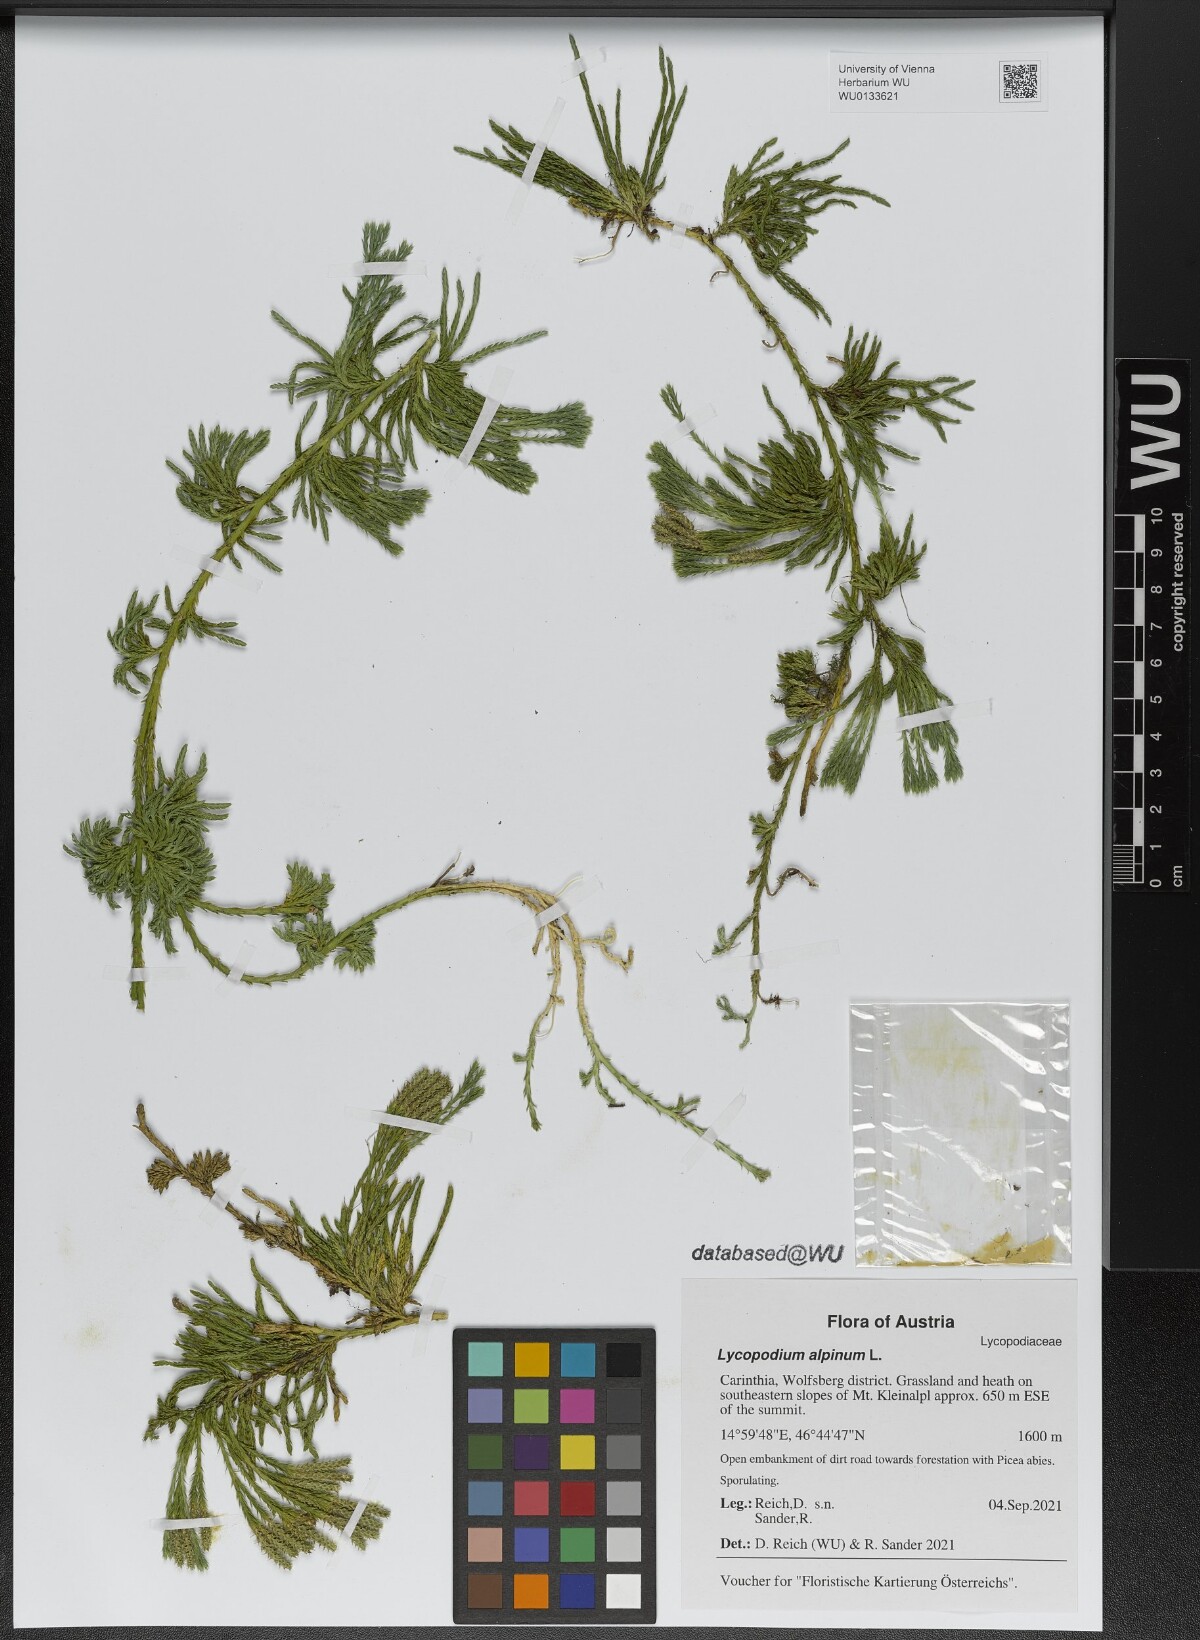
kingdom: Plantae
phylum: Tracheophyta
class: Lycopodiopsida
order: Lycopodiales
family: Lycopodiaceae
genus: Diphasiastrum
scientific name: Diphasiastrum alpinum
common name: Alpine clubmoss
